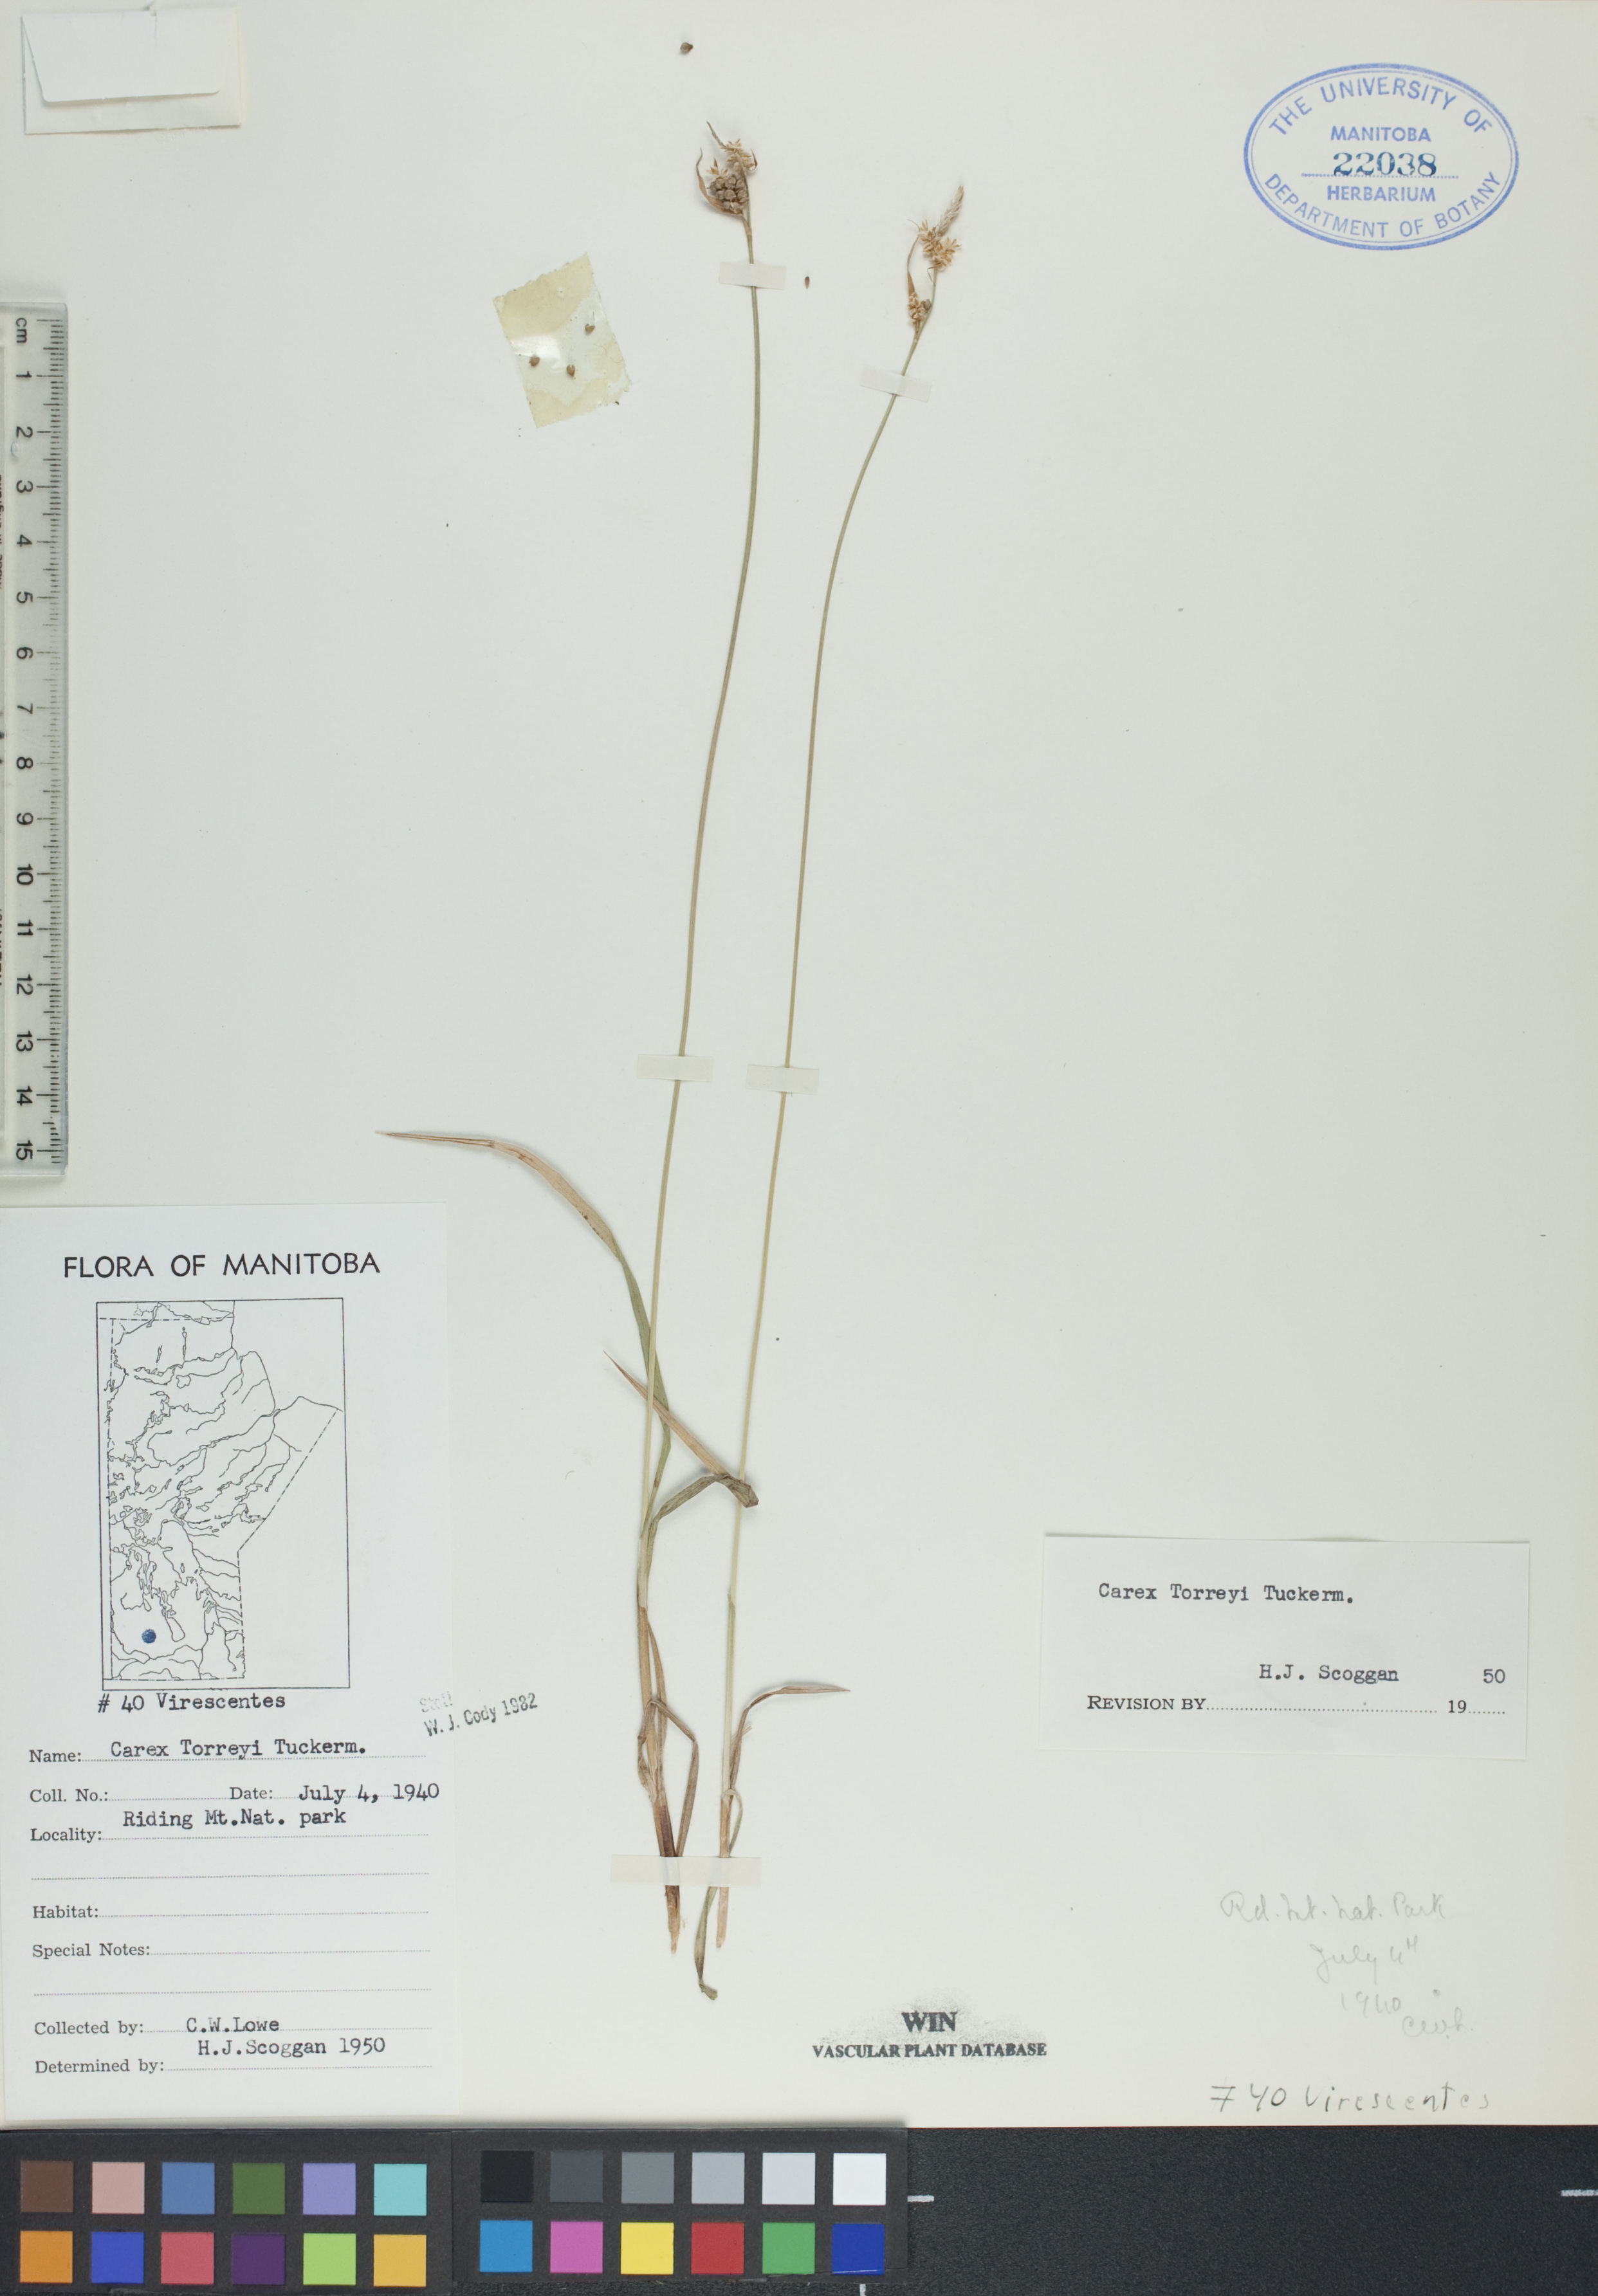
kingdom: Plantae
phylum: Tracheophyta
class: Liliopsida
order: Poales
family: Cyperaceae
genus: Carex
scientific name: Carex torreyi
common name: Torrey's sedge
